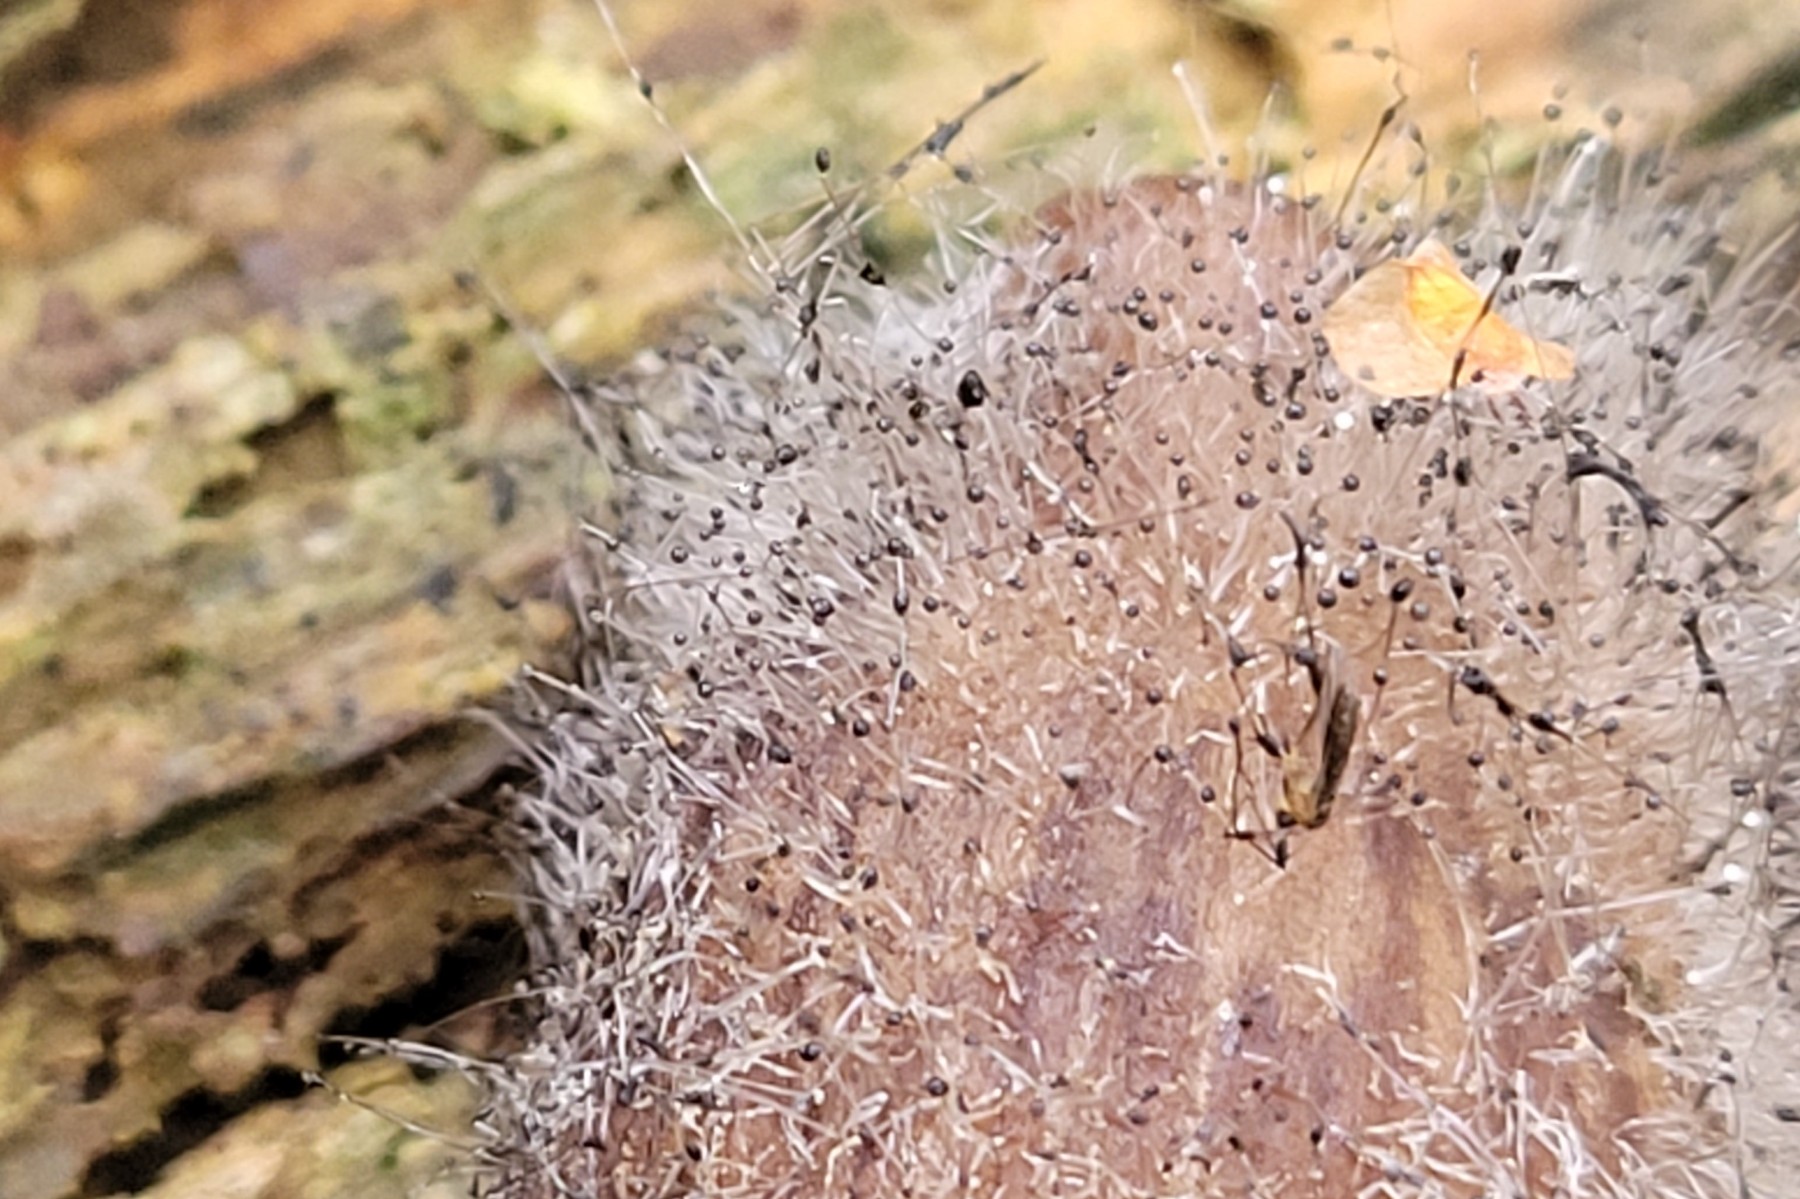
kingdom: Fungi
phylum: Mucoromycota
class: Mucoromycetes
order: Mucorales
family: Phycomycetaceae
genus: Spinellus
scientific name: Spinellus fusiger
